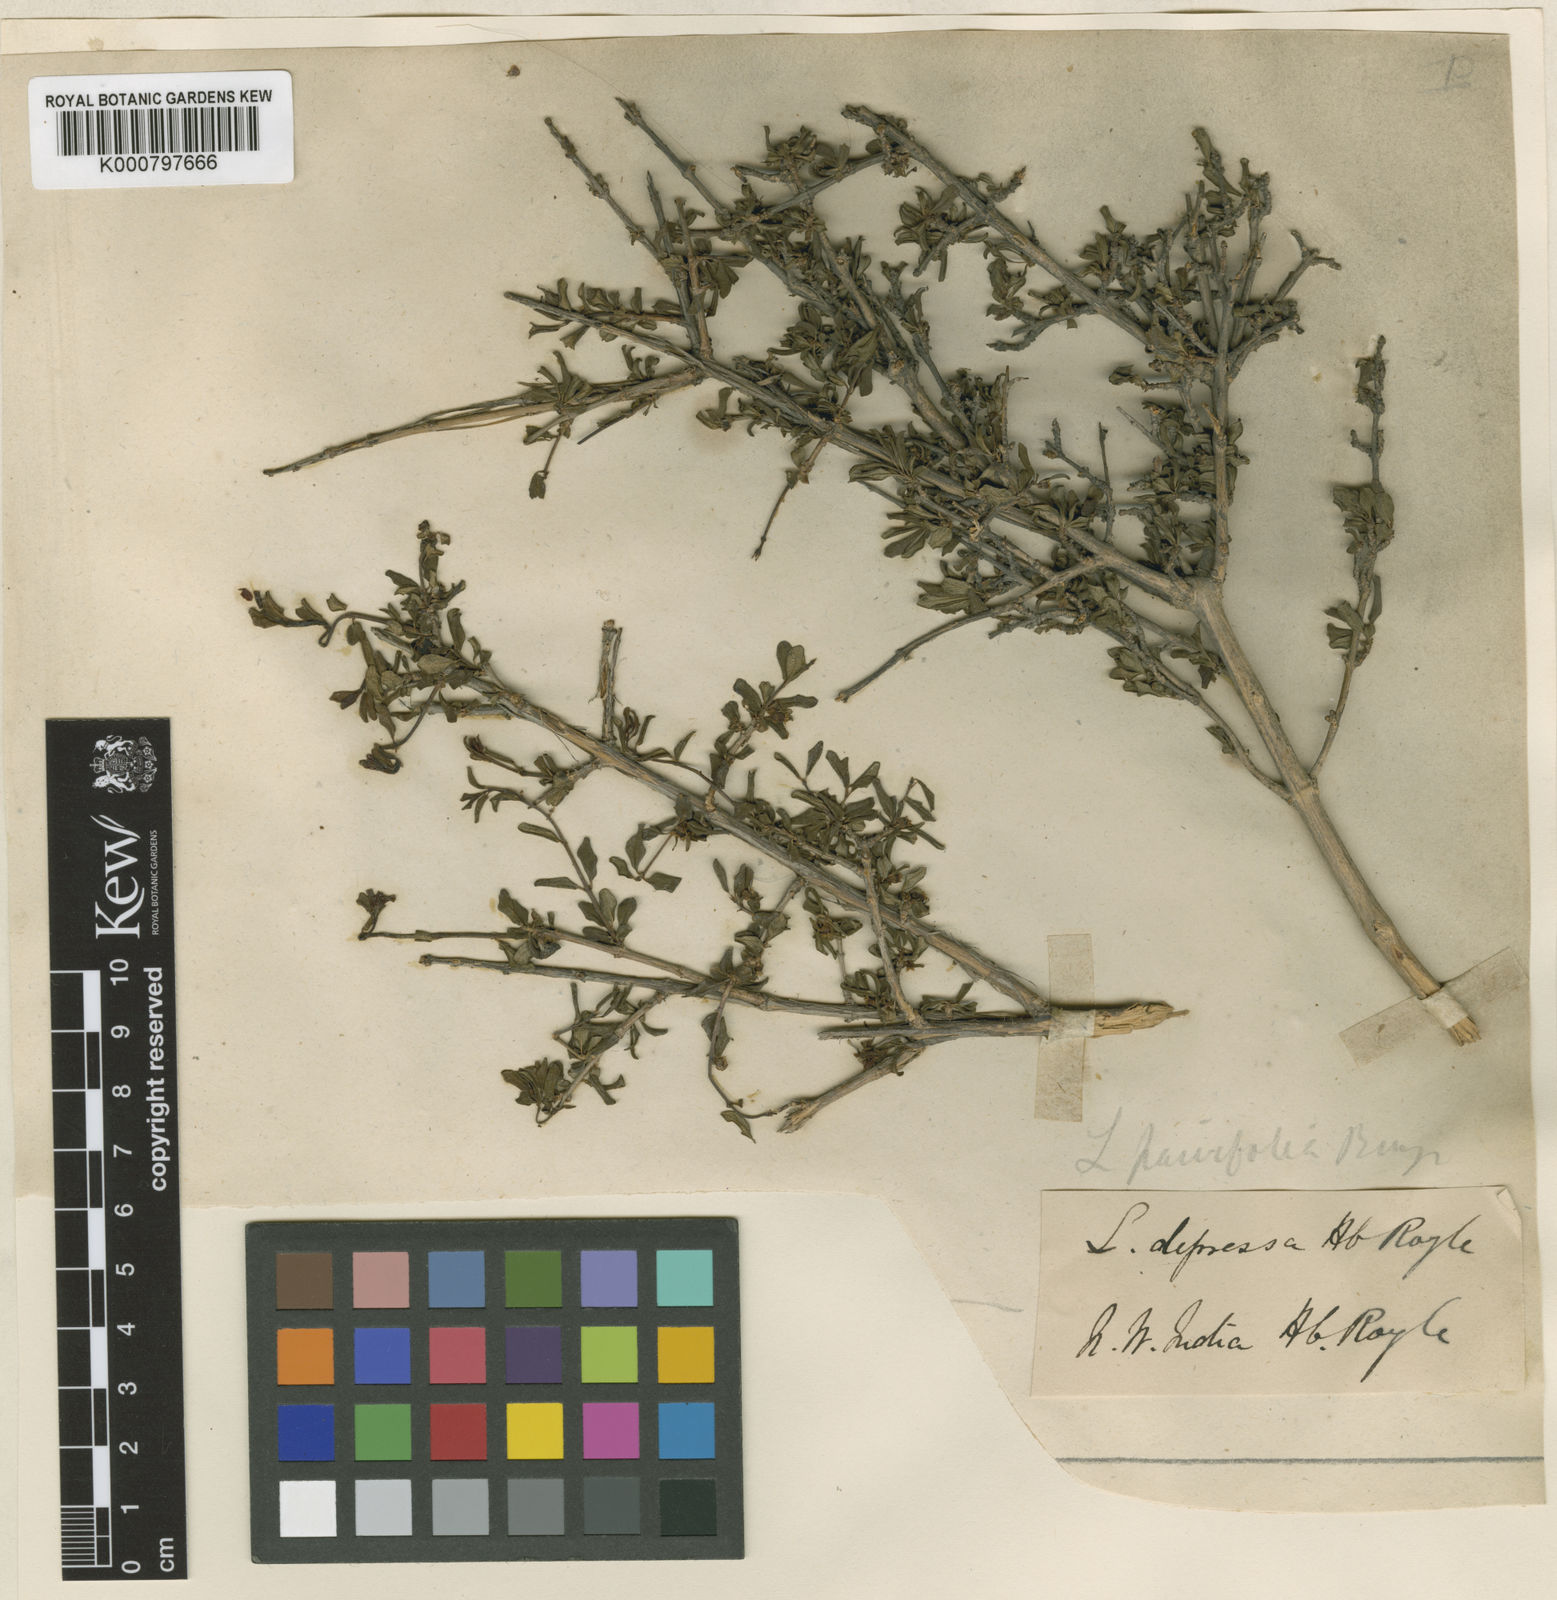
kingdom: Plantae
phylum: Tracheophyta
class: Magnoliopsida
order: Dipsacales
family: Caprifoliaceae
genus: Lonicera
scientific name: Lonicera angustifolia
